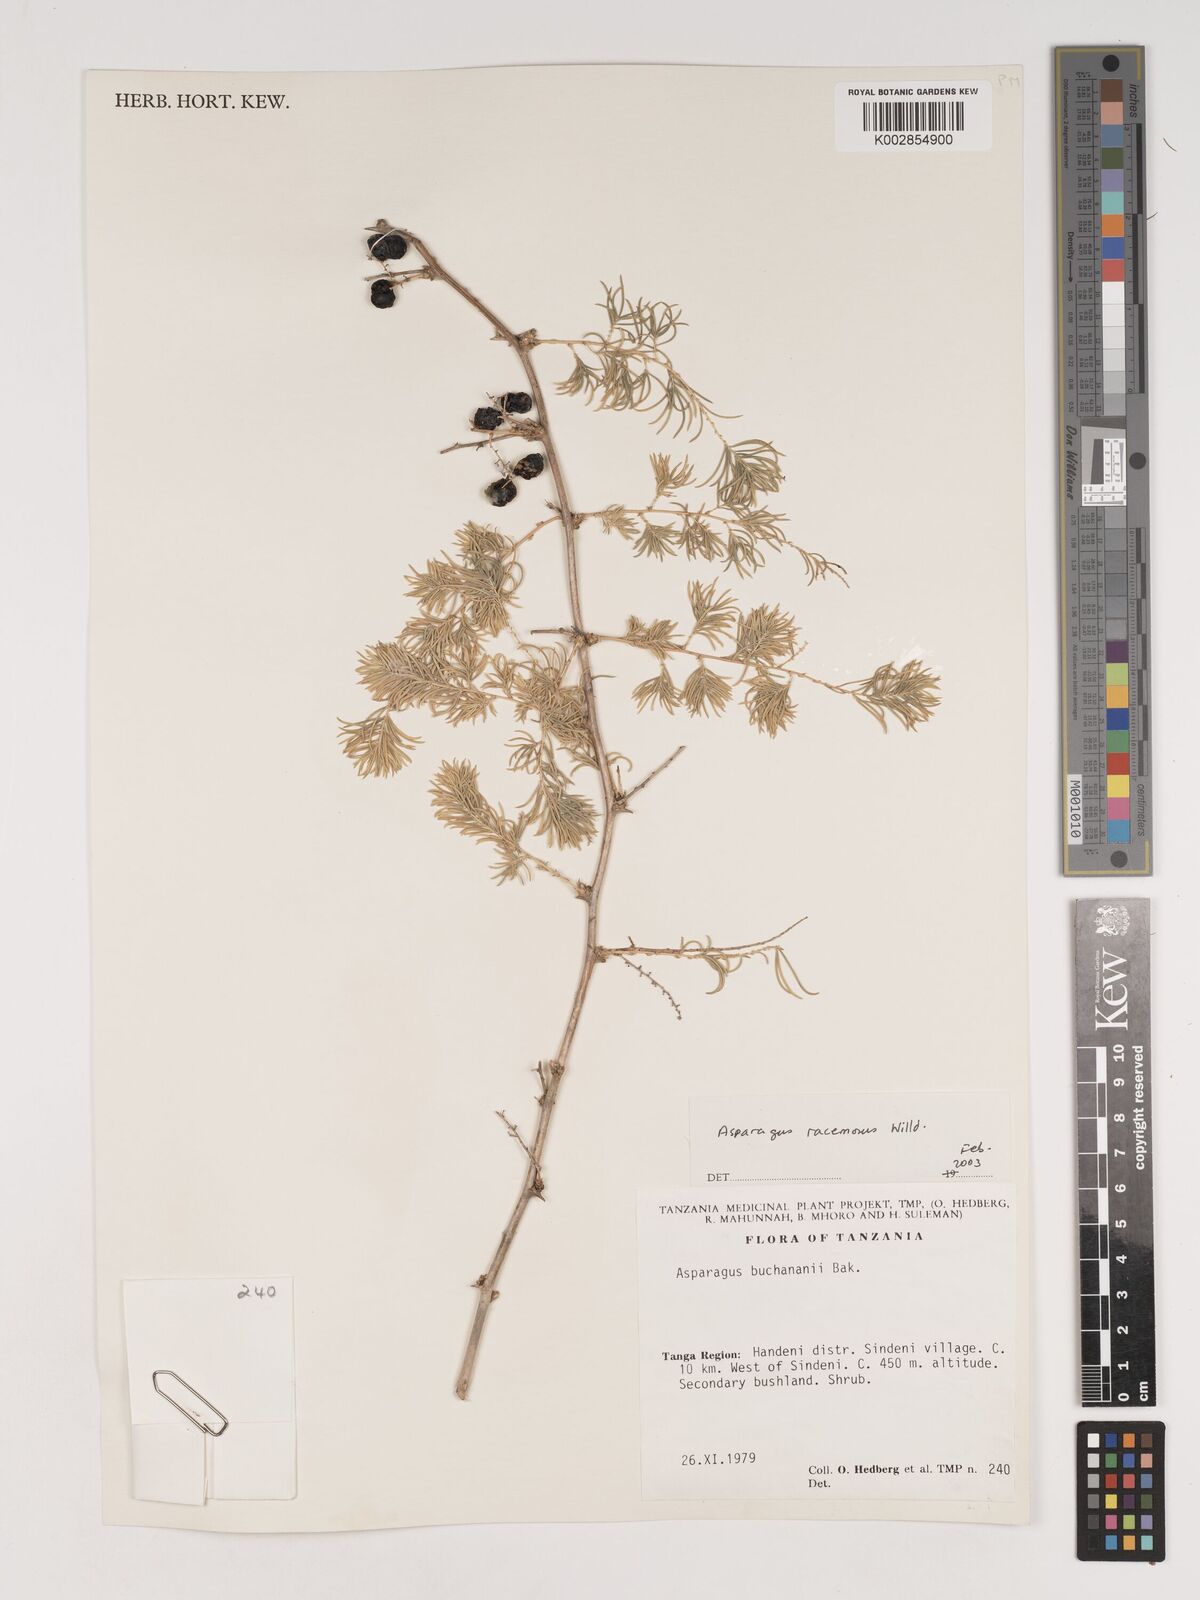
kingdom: Plantae
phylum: Tracheophyta
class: Liliopsida
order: Asparagales
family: Asparagaceae
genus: Asparagus
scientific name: Asparagus racemosus
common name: Asparagus-fern
